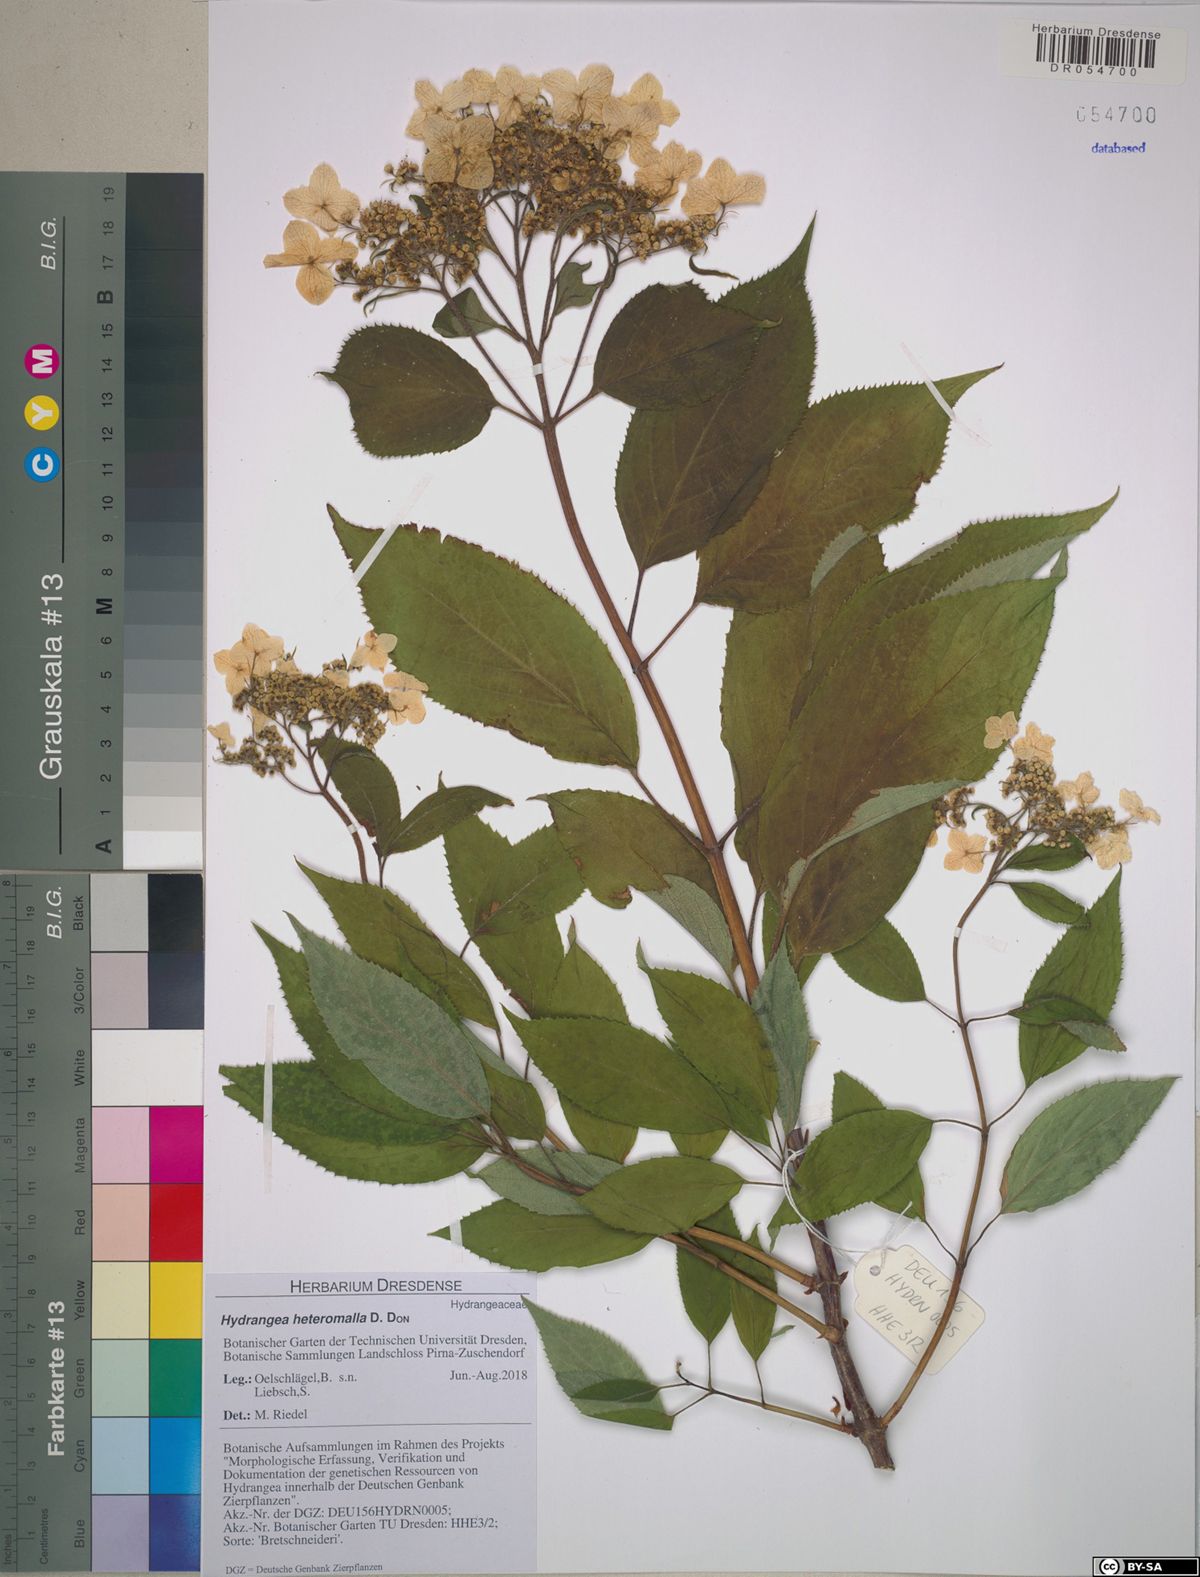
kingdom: Plantae
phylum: Tracheophyta
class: Magnoliopsida
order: Cornales
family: Hydrangeaceae
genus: Hydrangea
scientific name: Hydrangea heteromalla
